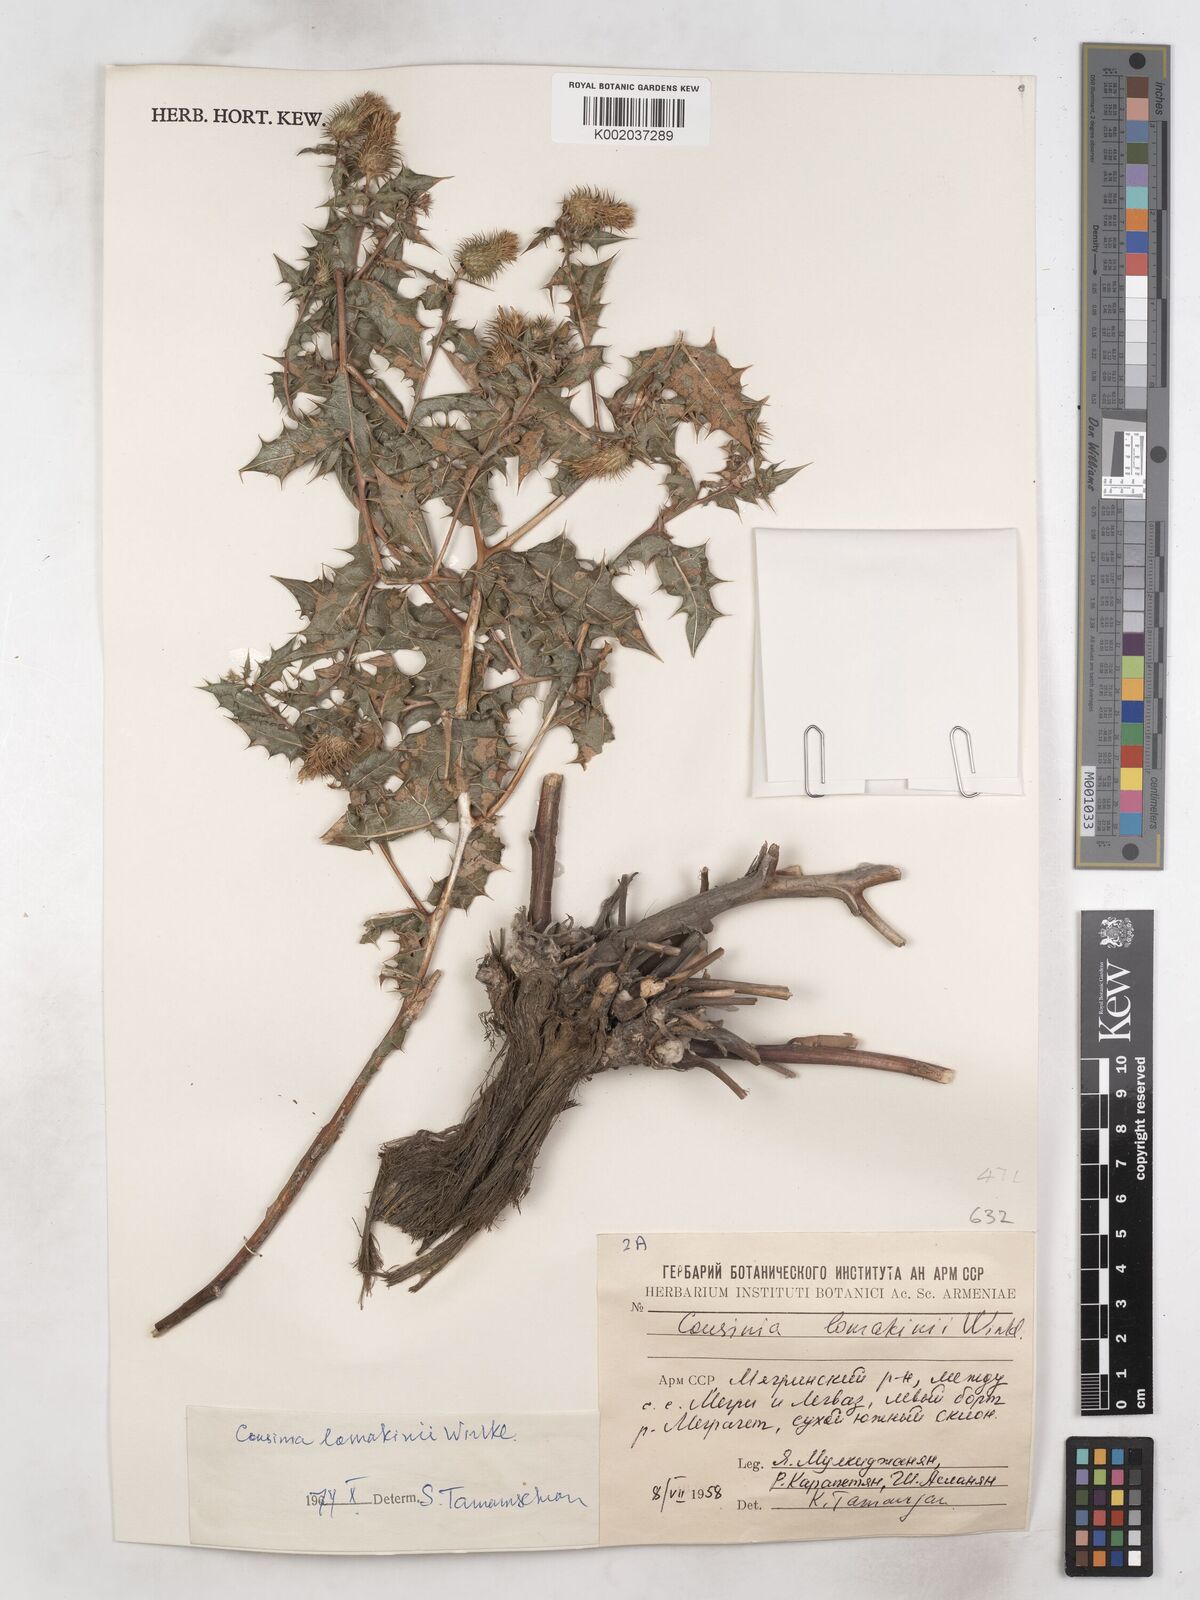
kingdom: Plantae
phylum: Tracheophyta
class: Magnoliopsida
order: Asterales
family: Asteraceae
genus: Cousinia
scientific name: Cousinia lamakini
